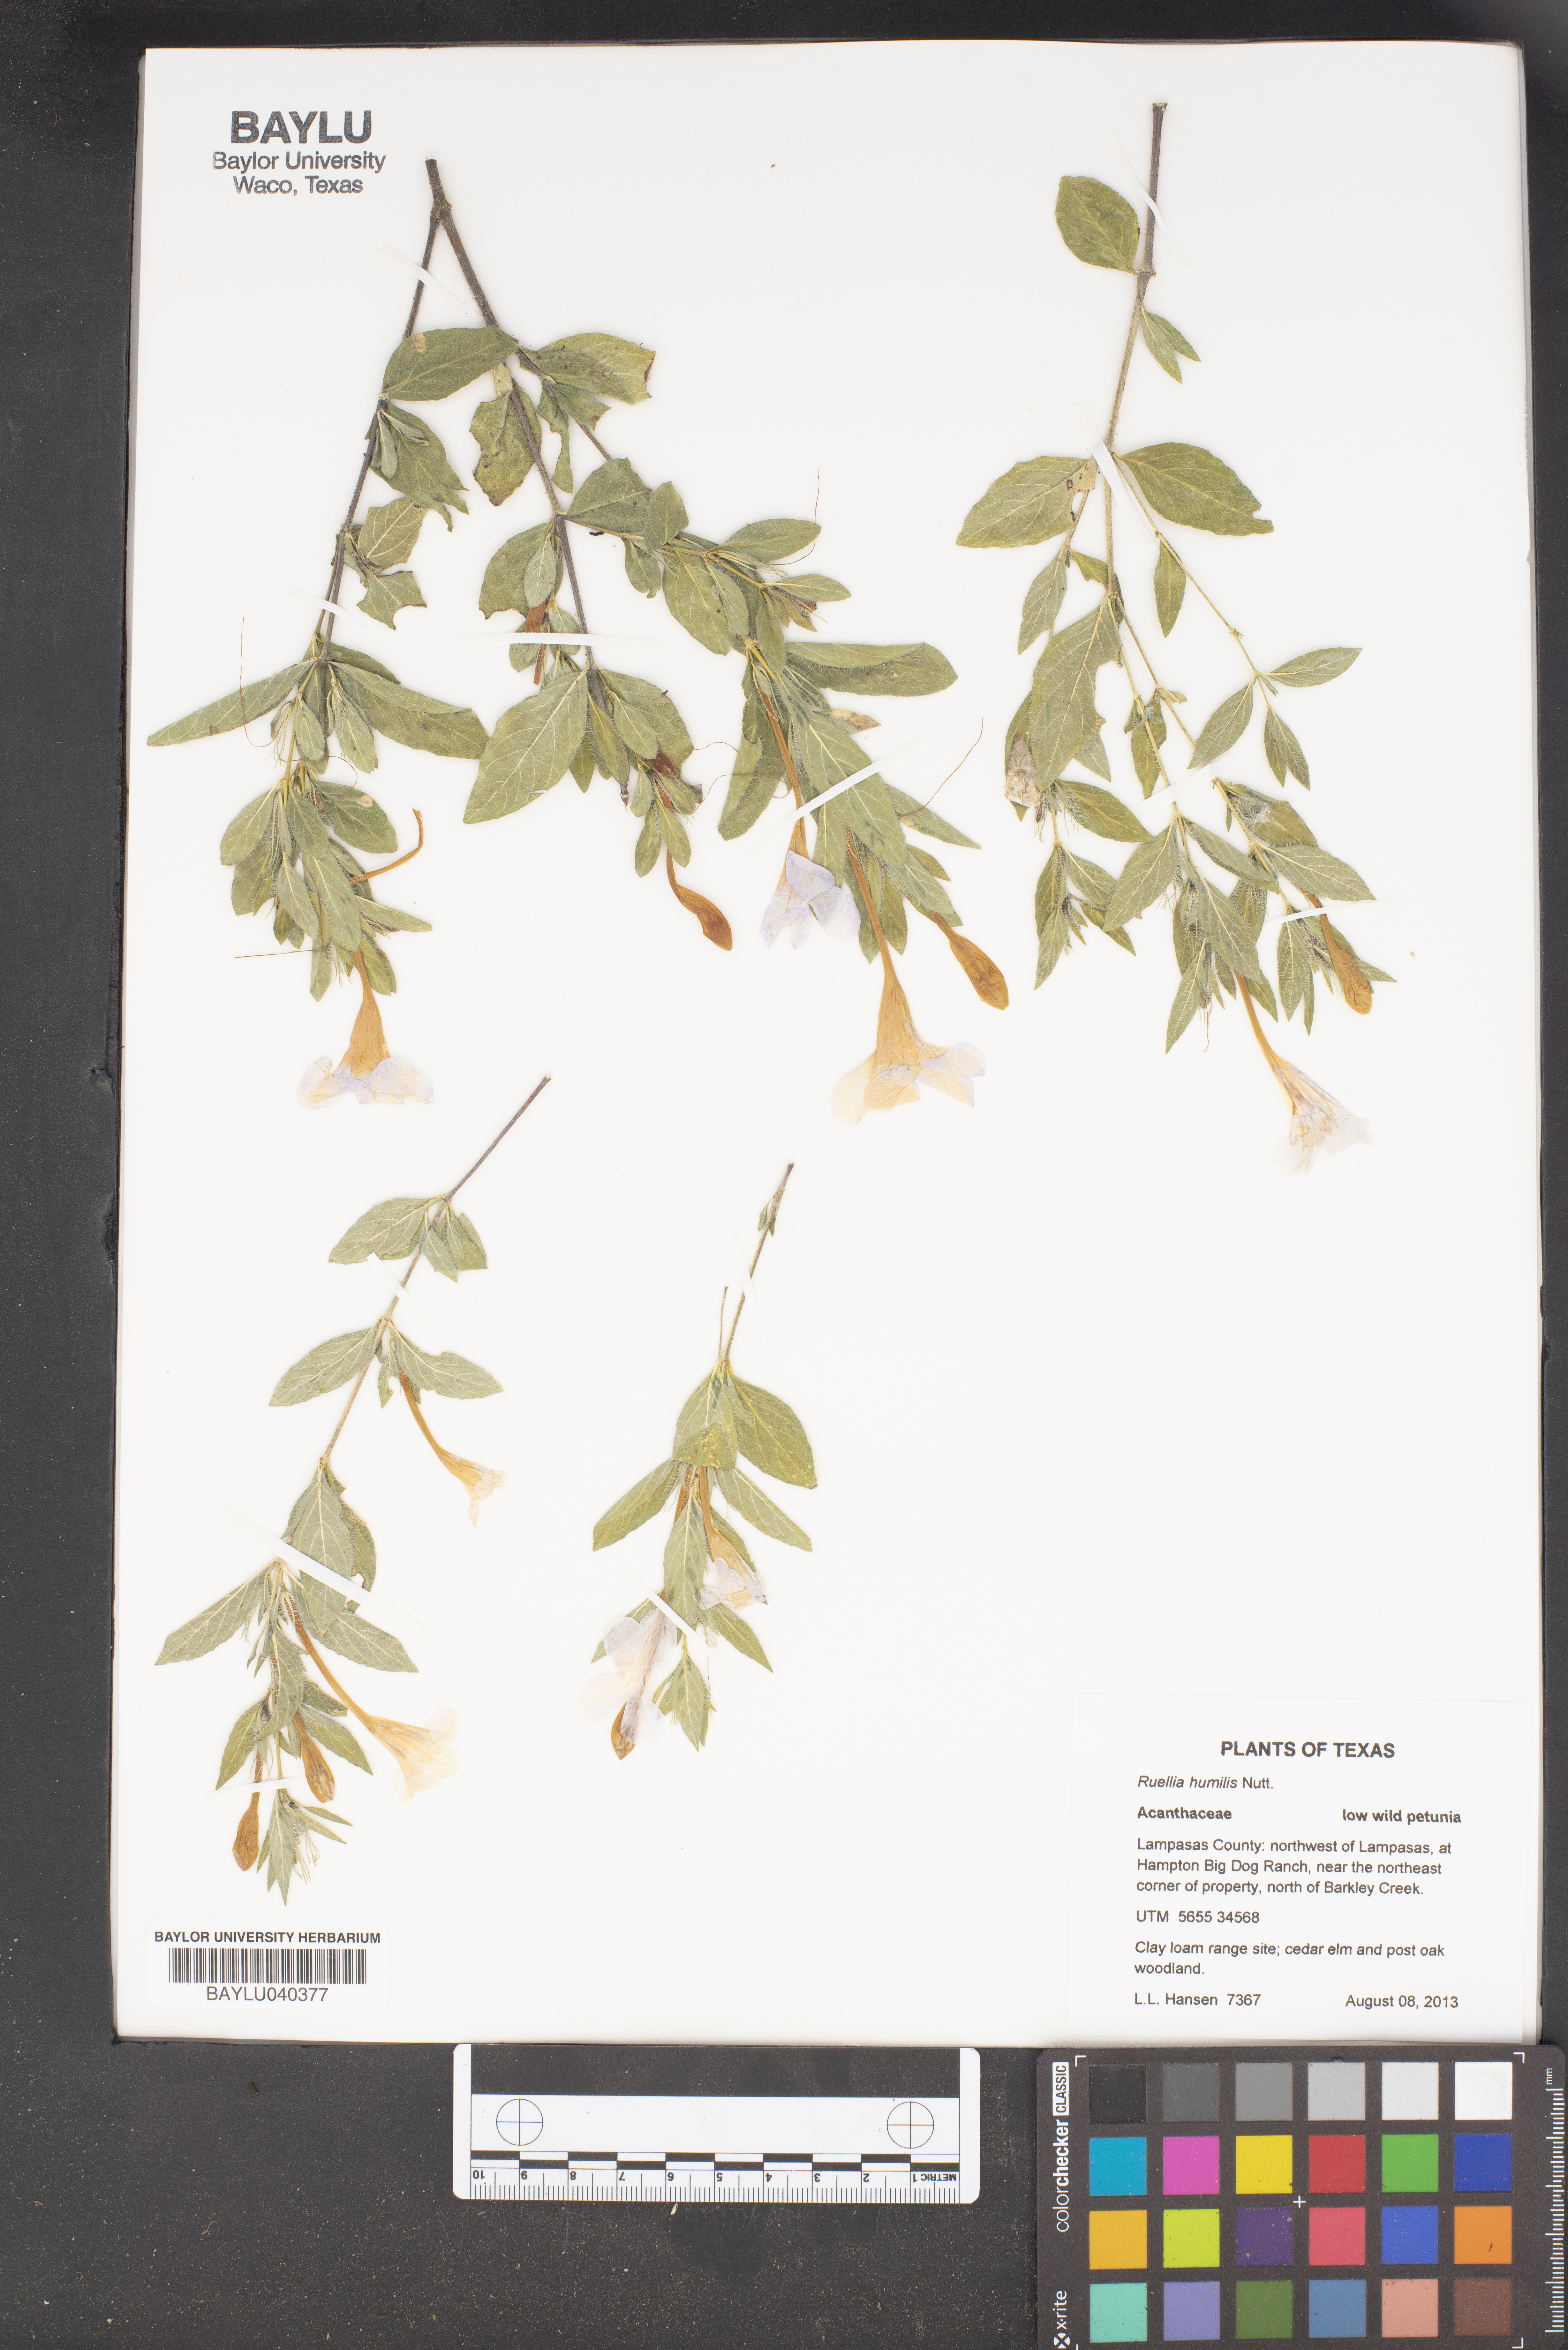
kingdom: Plantae
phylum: Tracheophyta
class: Magnoliopsida
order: Lamiales
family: Acanthaceae
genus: Ruellia
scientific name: Ruellia humilis
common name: Fringe-leaf ruellia
